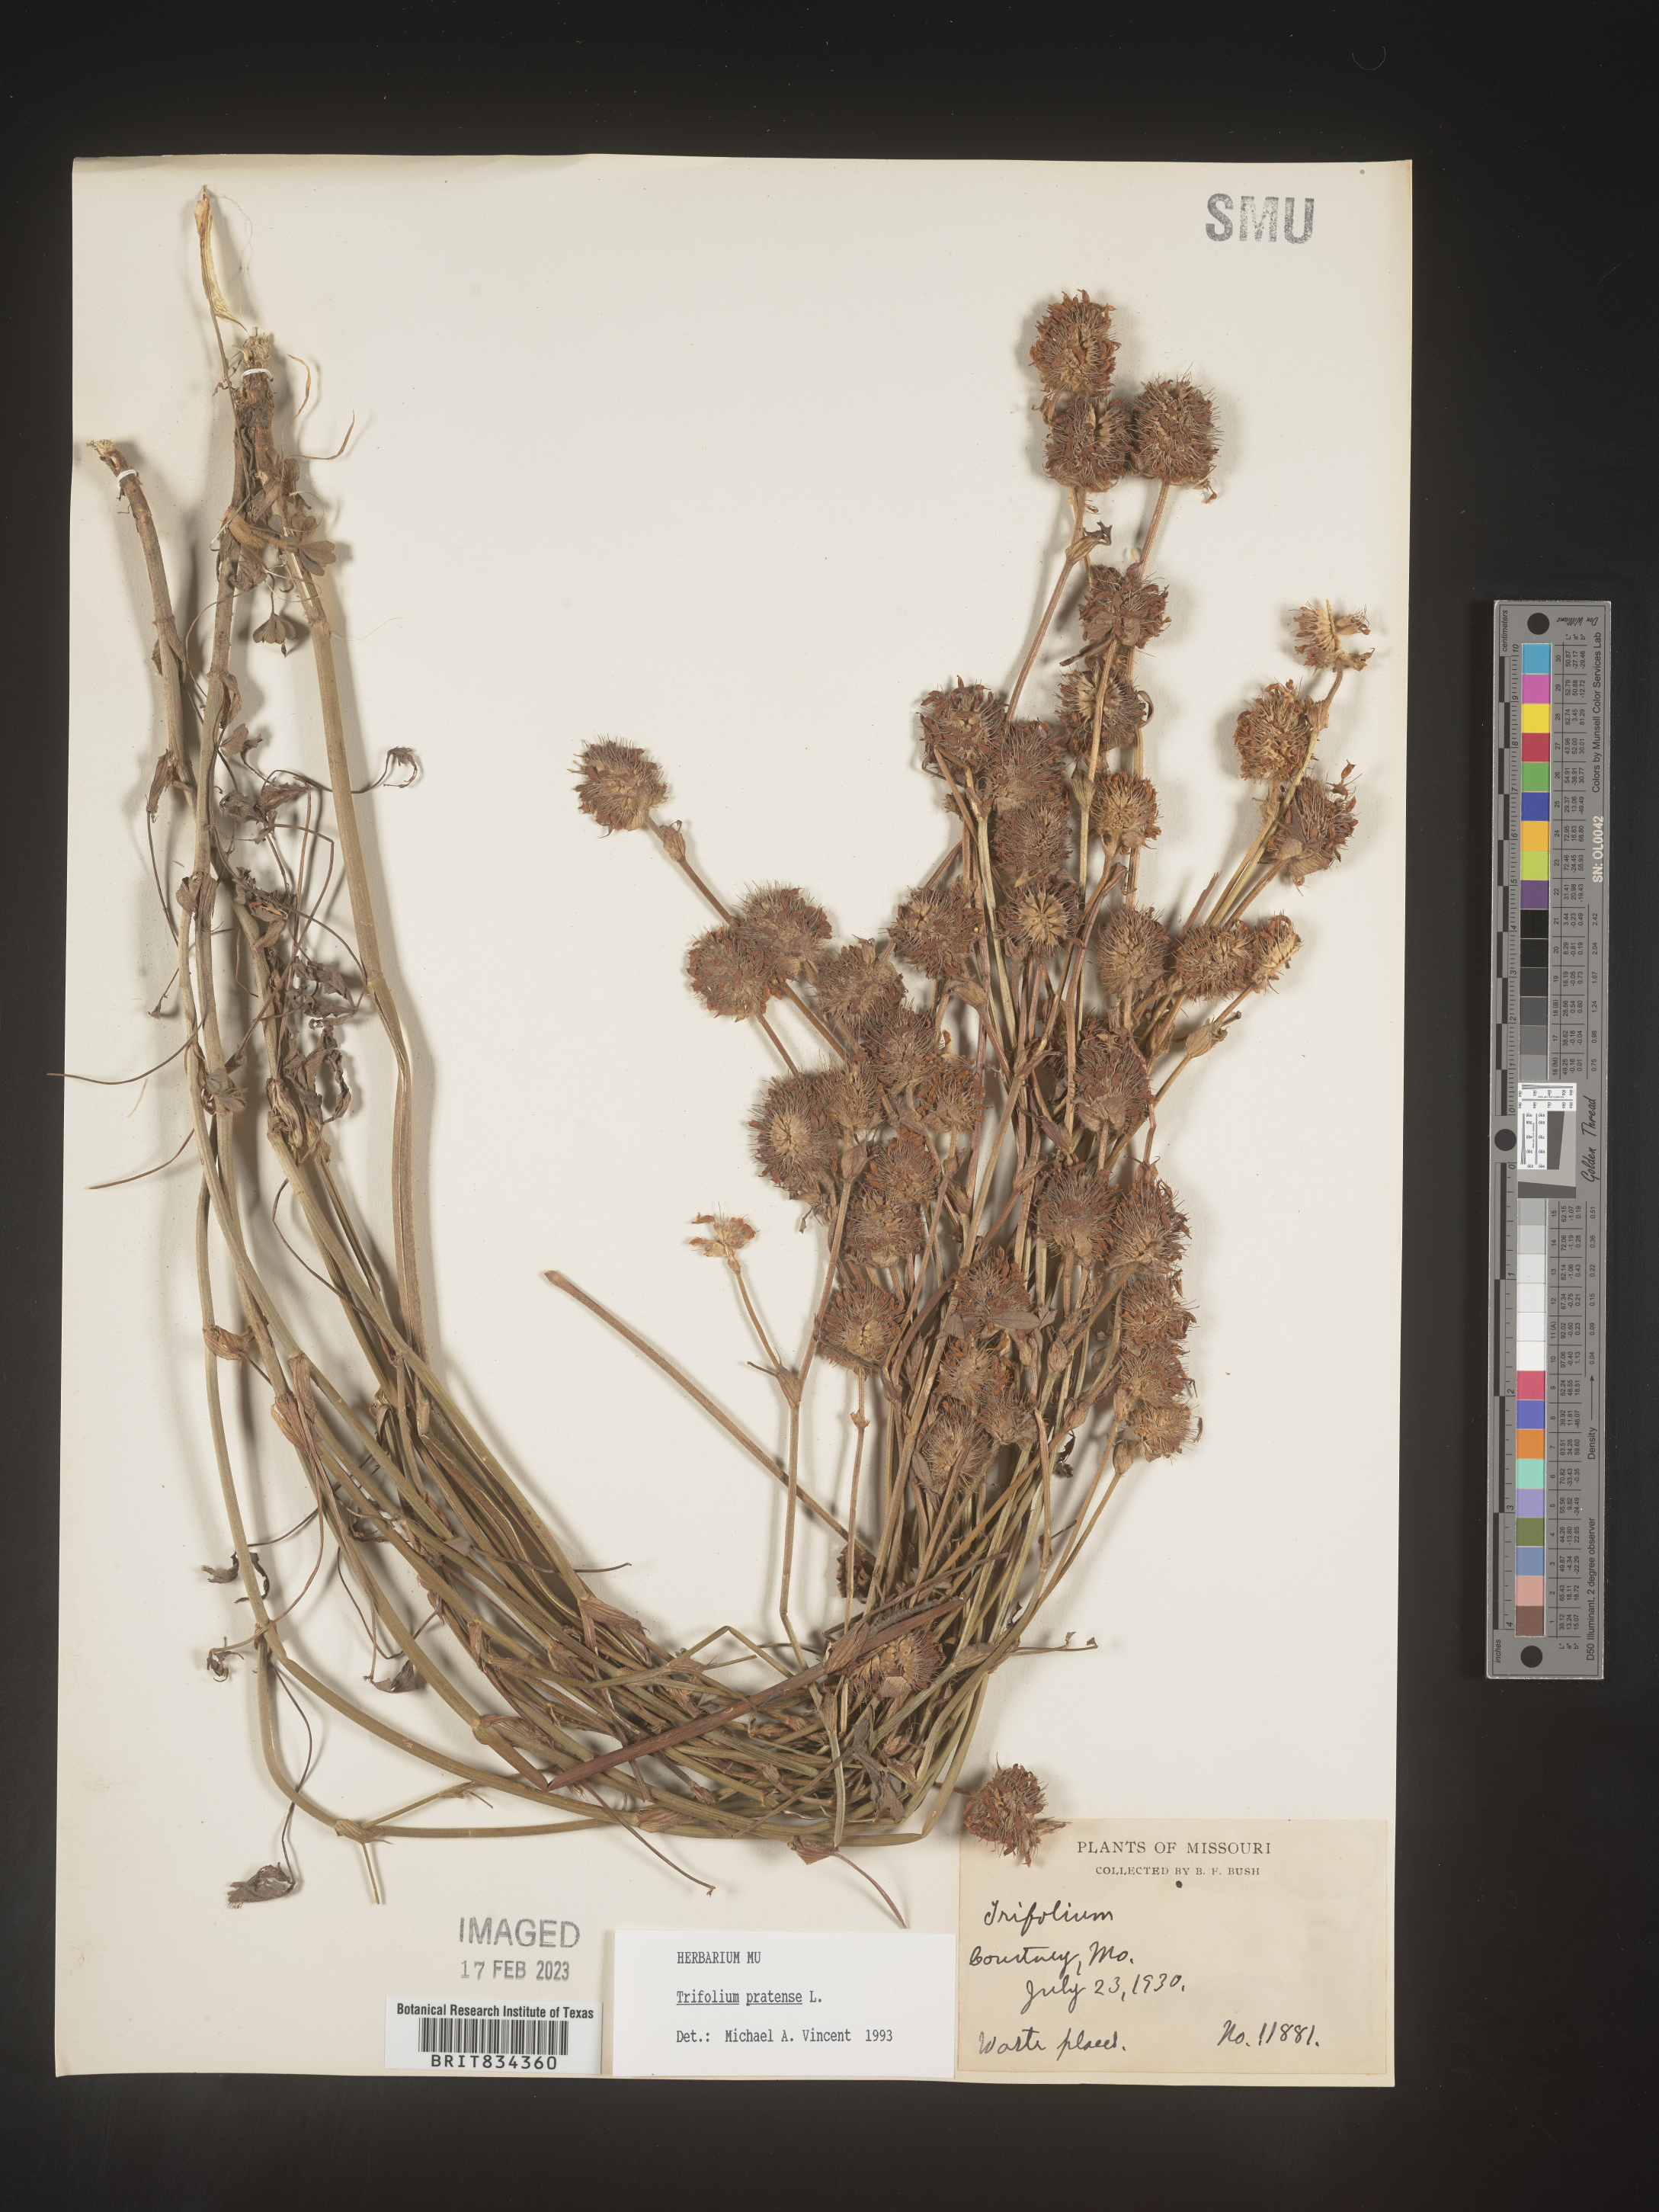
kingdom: Plantae
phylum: Tracheophyta
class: Magnoliopsida
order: Fabales
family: Fabaceae
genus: Trifolium
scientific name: Trifolium pratense
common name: Red clover
